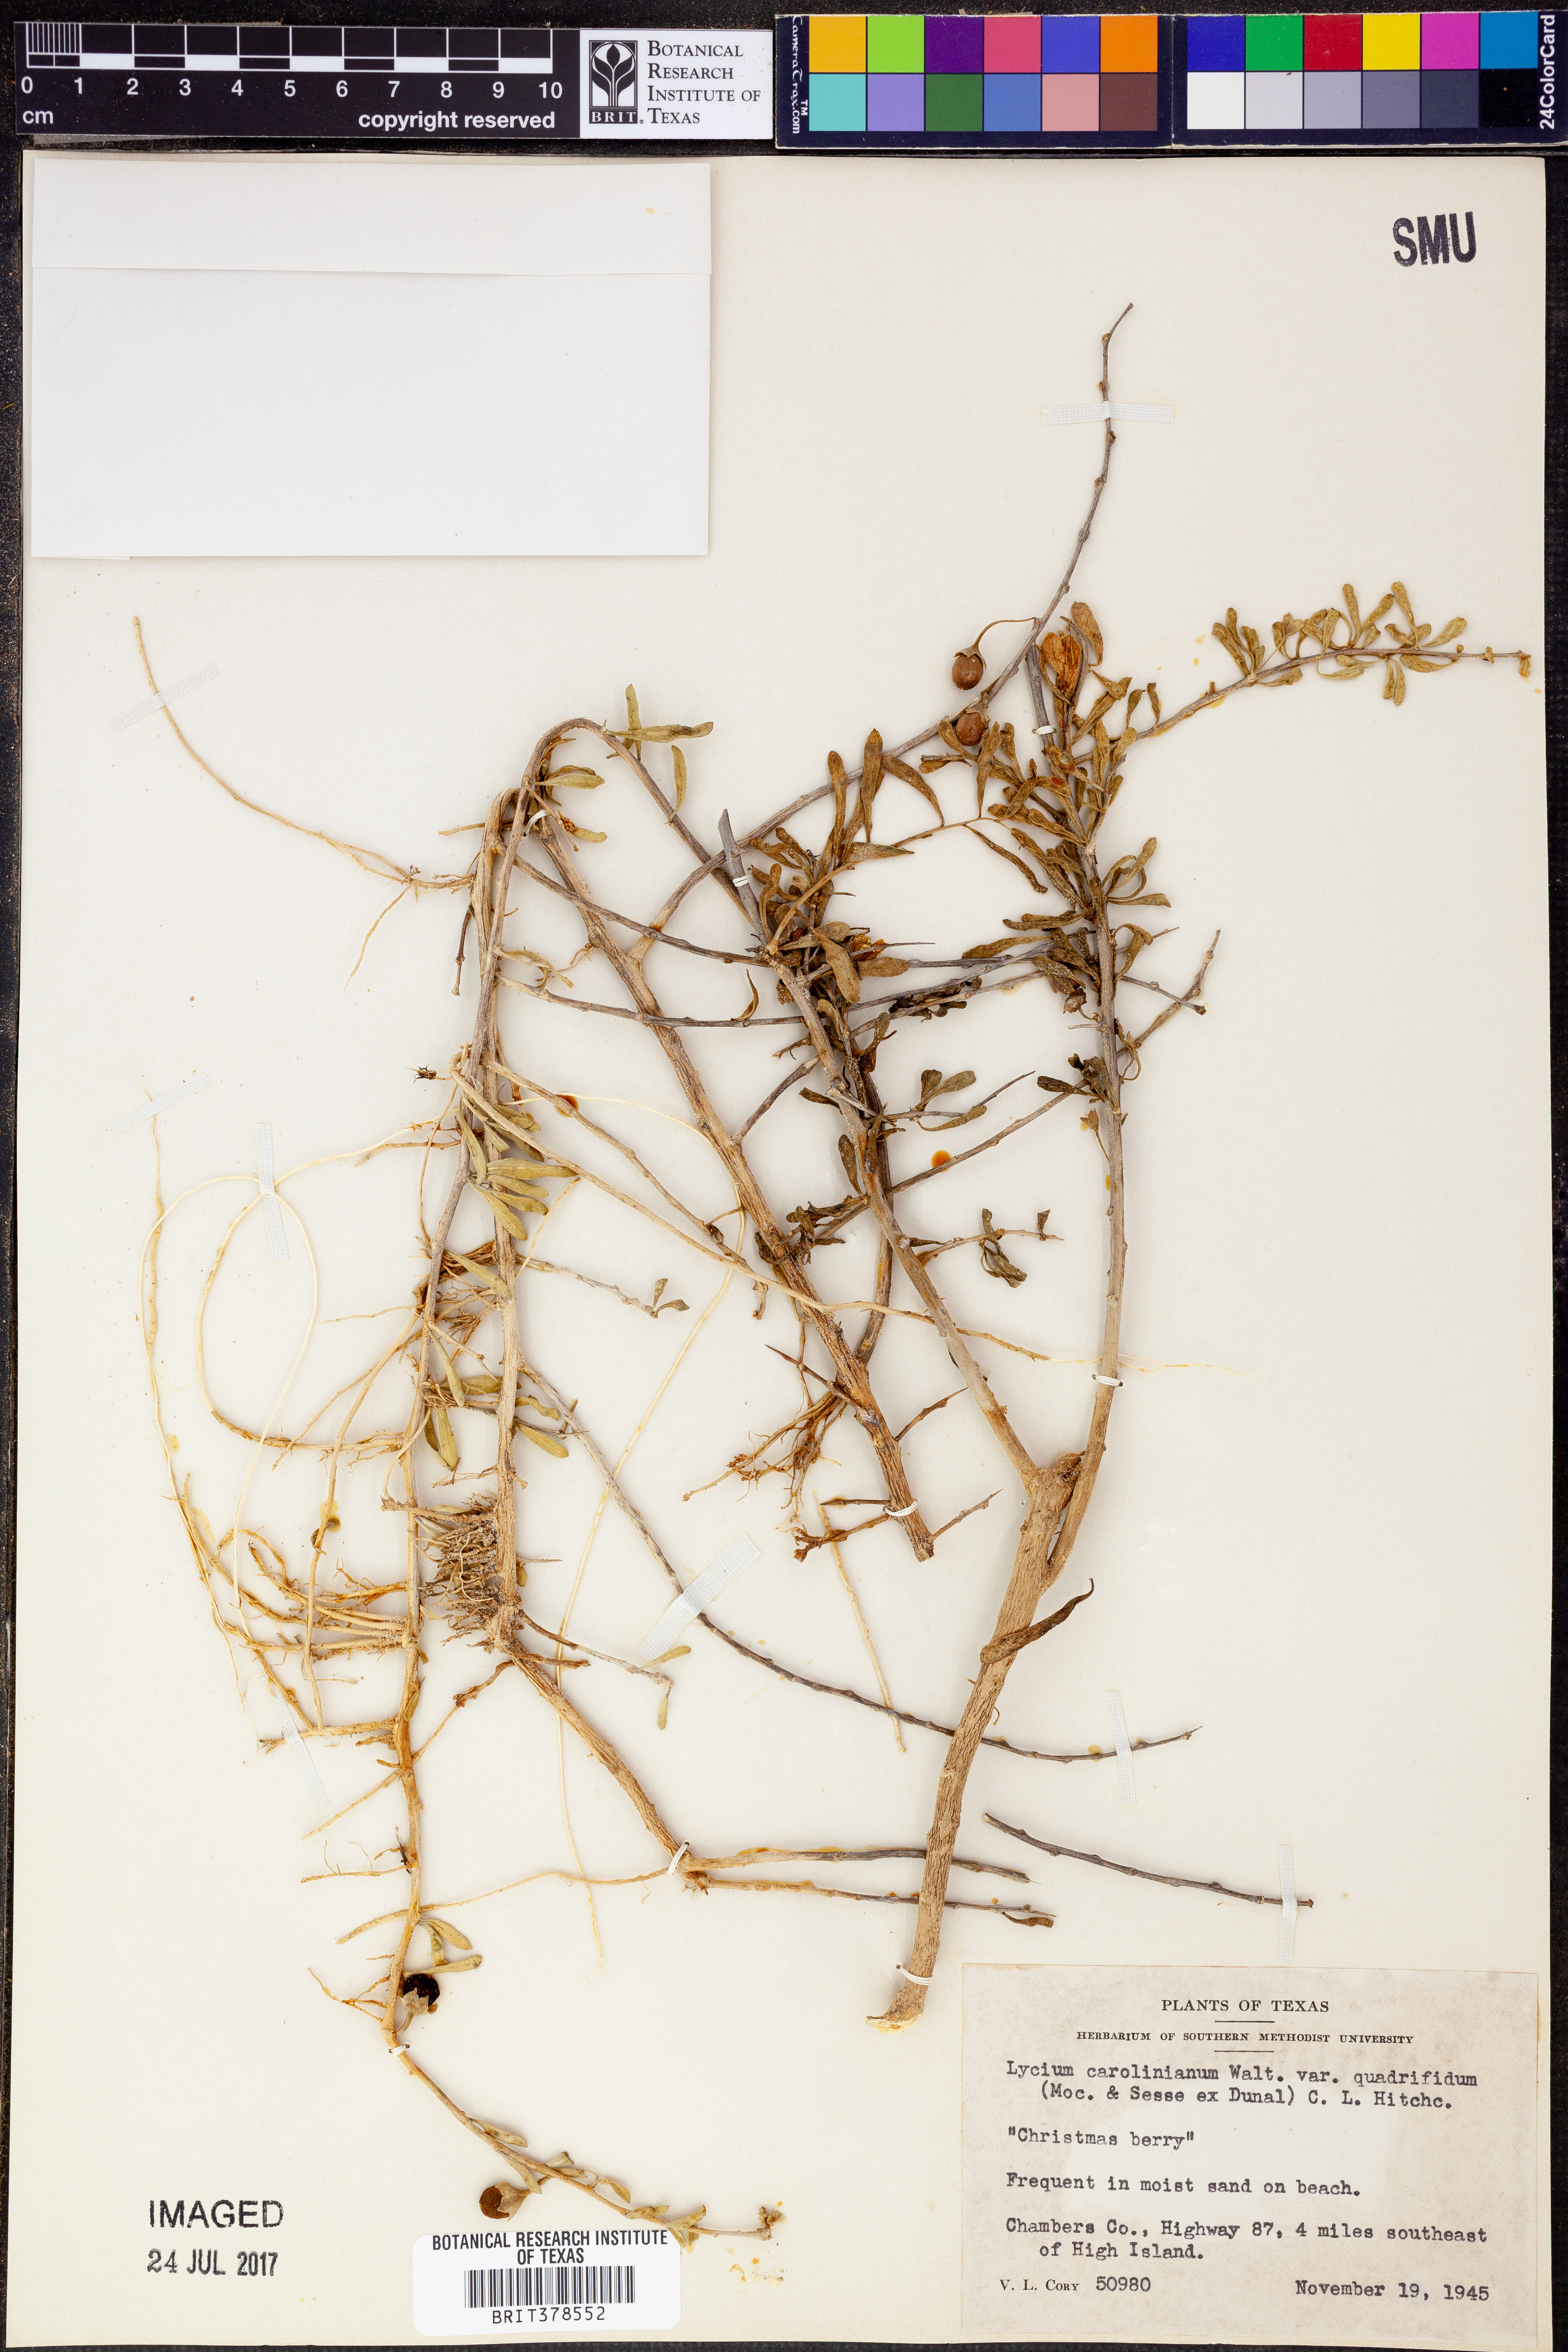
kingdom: Plantae
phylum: Tracheophyta
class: Magnoliopsida
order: Solanales
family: Solanaceae
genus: Lycium
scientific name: Lycium carolinianum
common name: Christmasberry
